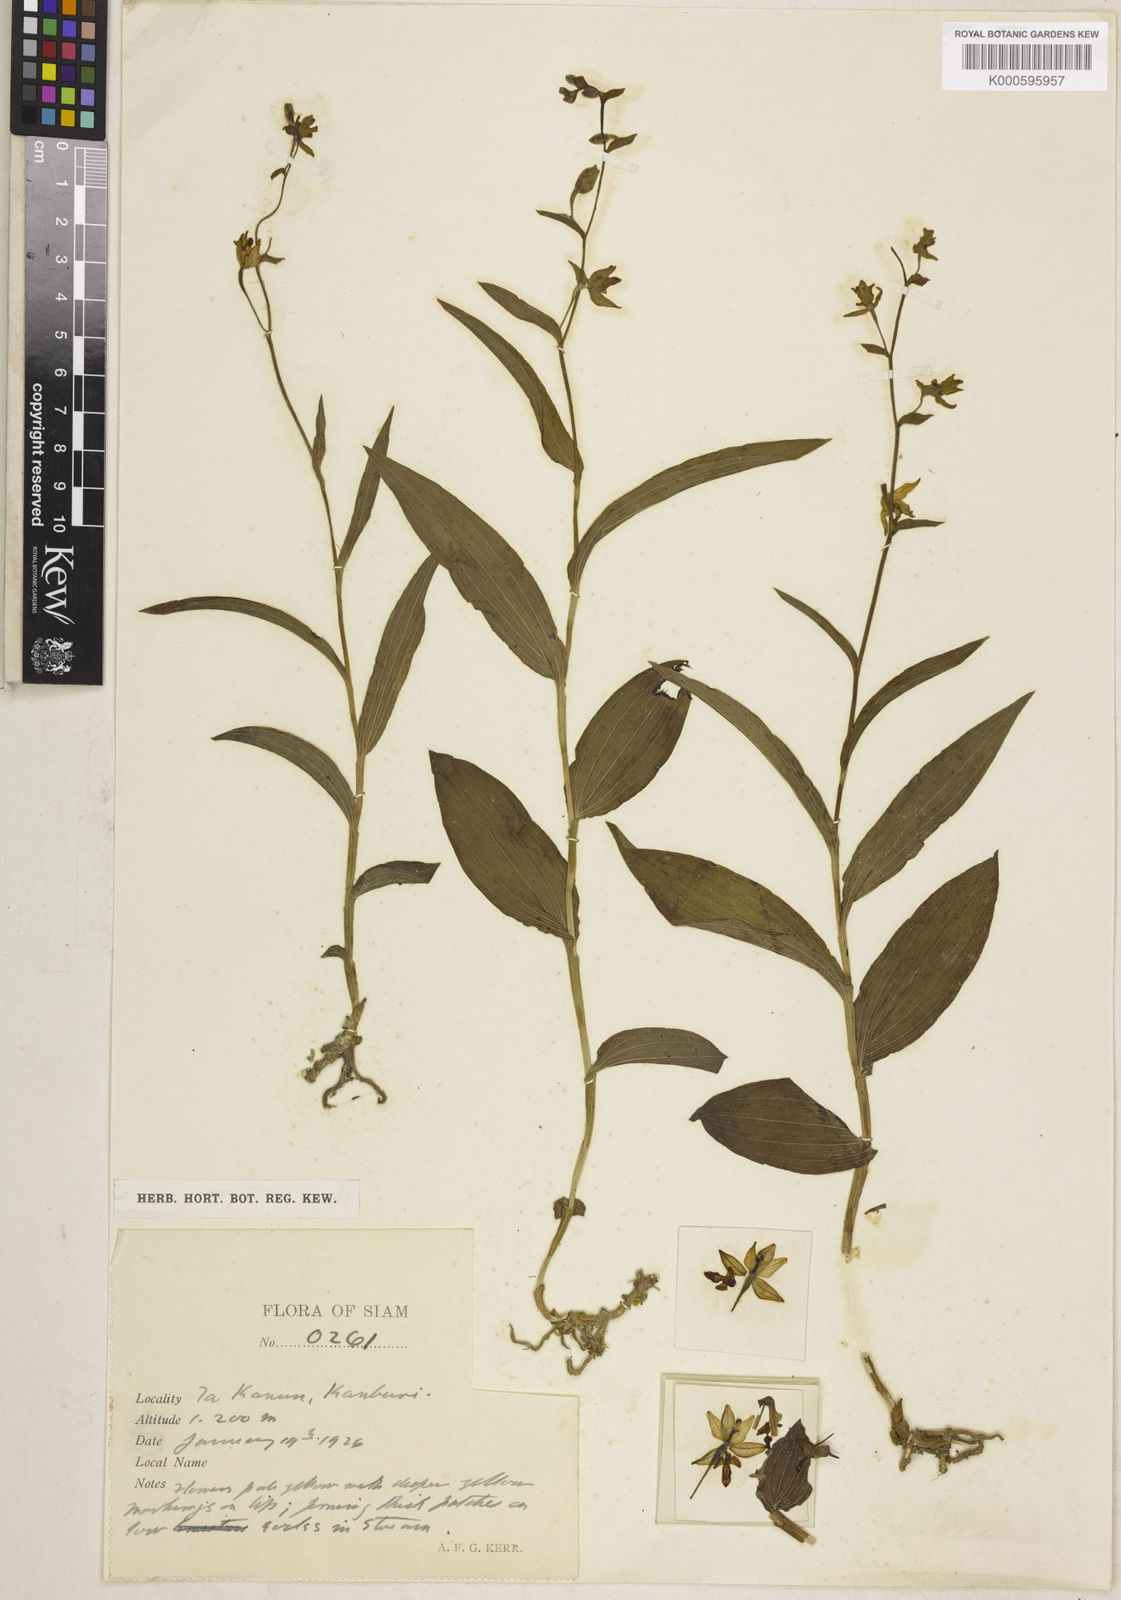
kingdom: Plantae
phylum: Tracheophyta
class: Liliopsida
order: Asparagales
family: Orchidaceae
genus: Epipactis
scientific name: Epipactis flava
